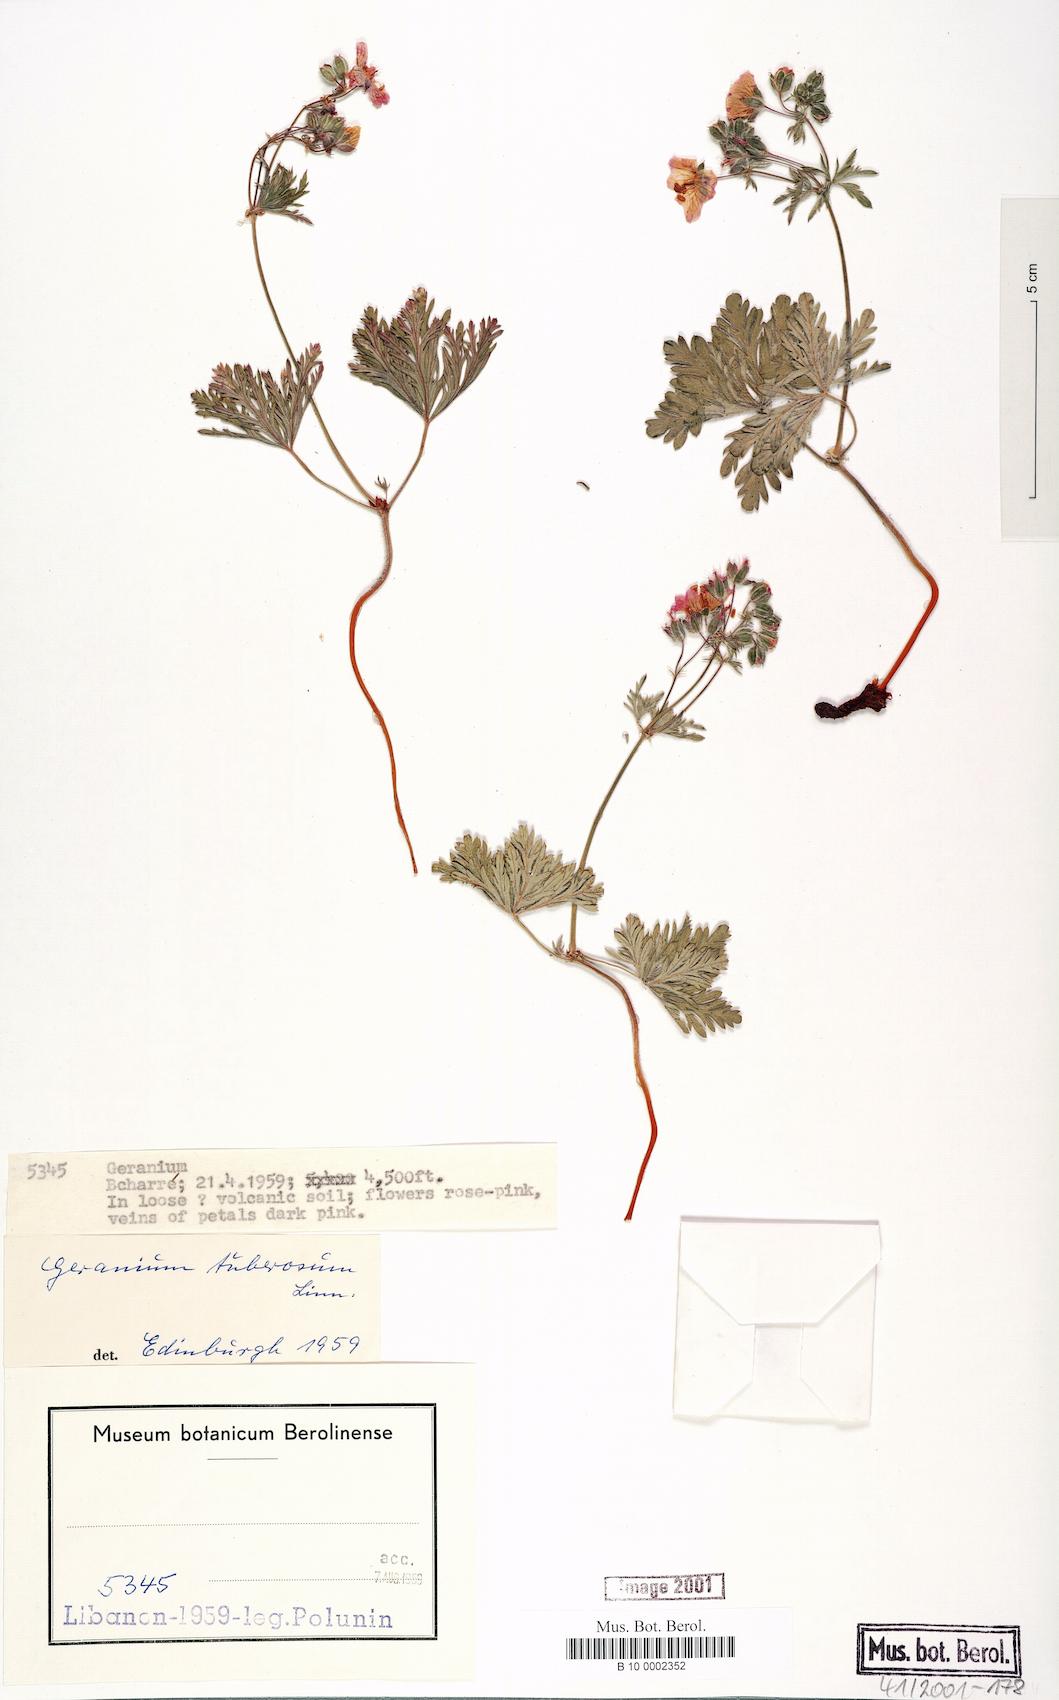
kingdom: Plantae
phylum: Tracheophyta
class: Magnoliopsida
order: Geraniales
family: Geraniaceae
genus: Geranium
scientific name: Geranium tuberosum
